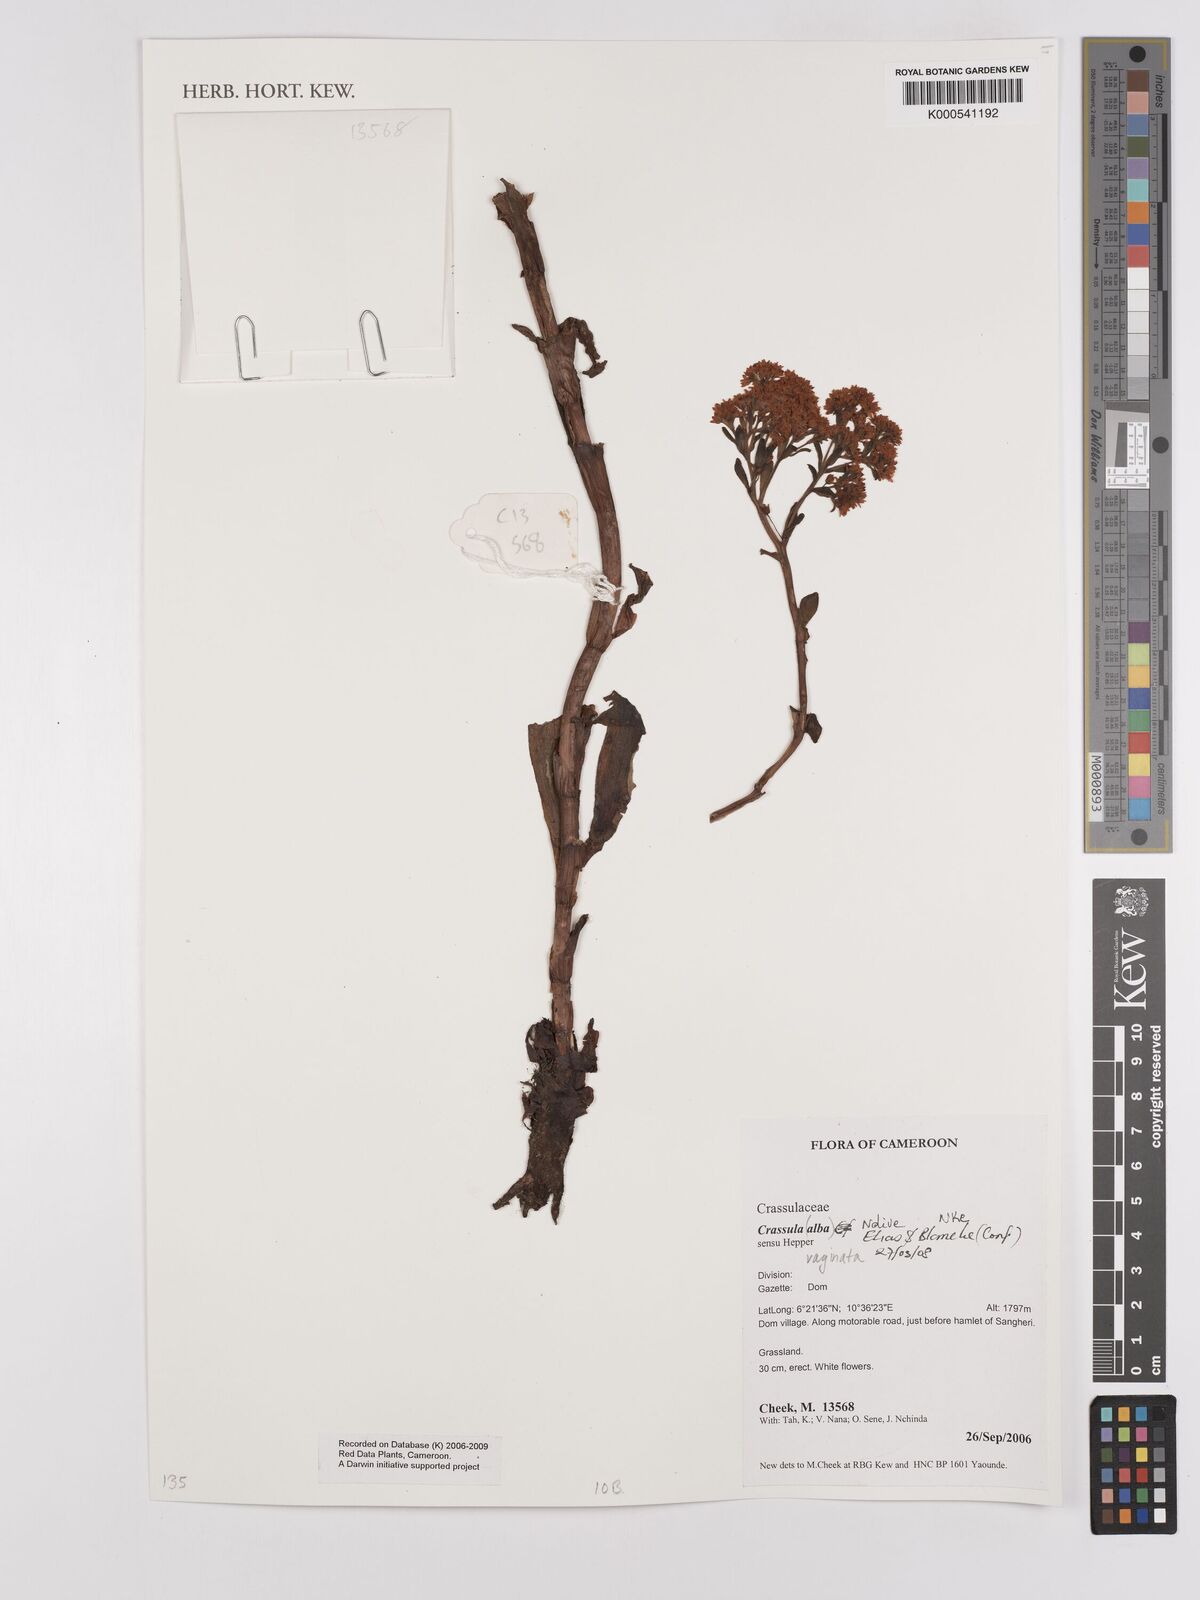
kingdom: Plantae
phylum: Tracheophyta
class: Magnoliopsida
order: Saxifragales
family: Crassulaceae
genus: Crassula
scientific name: Crassula vaginata
